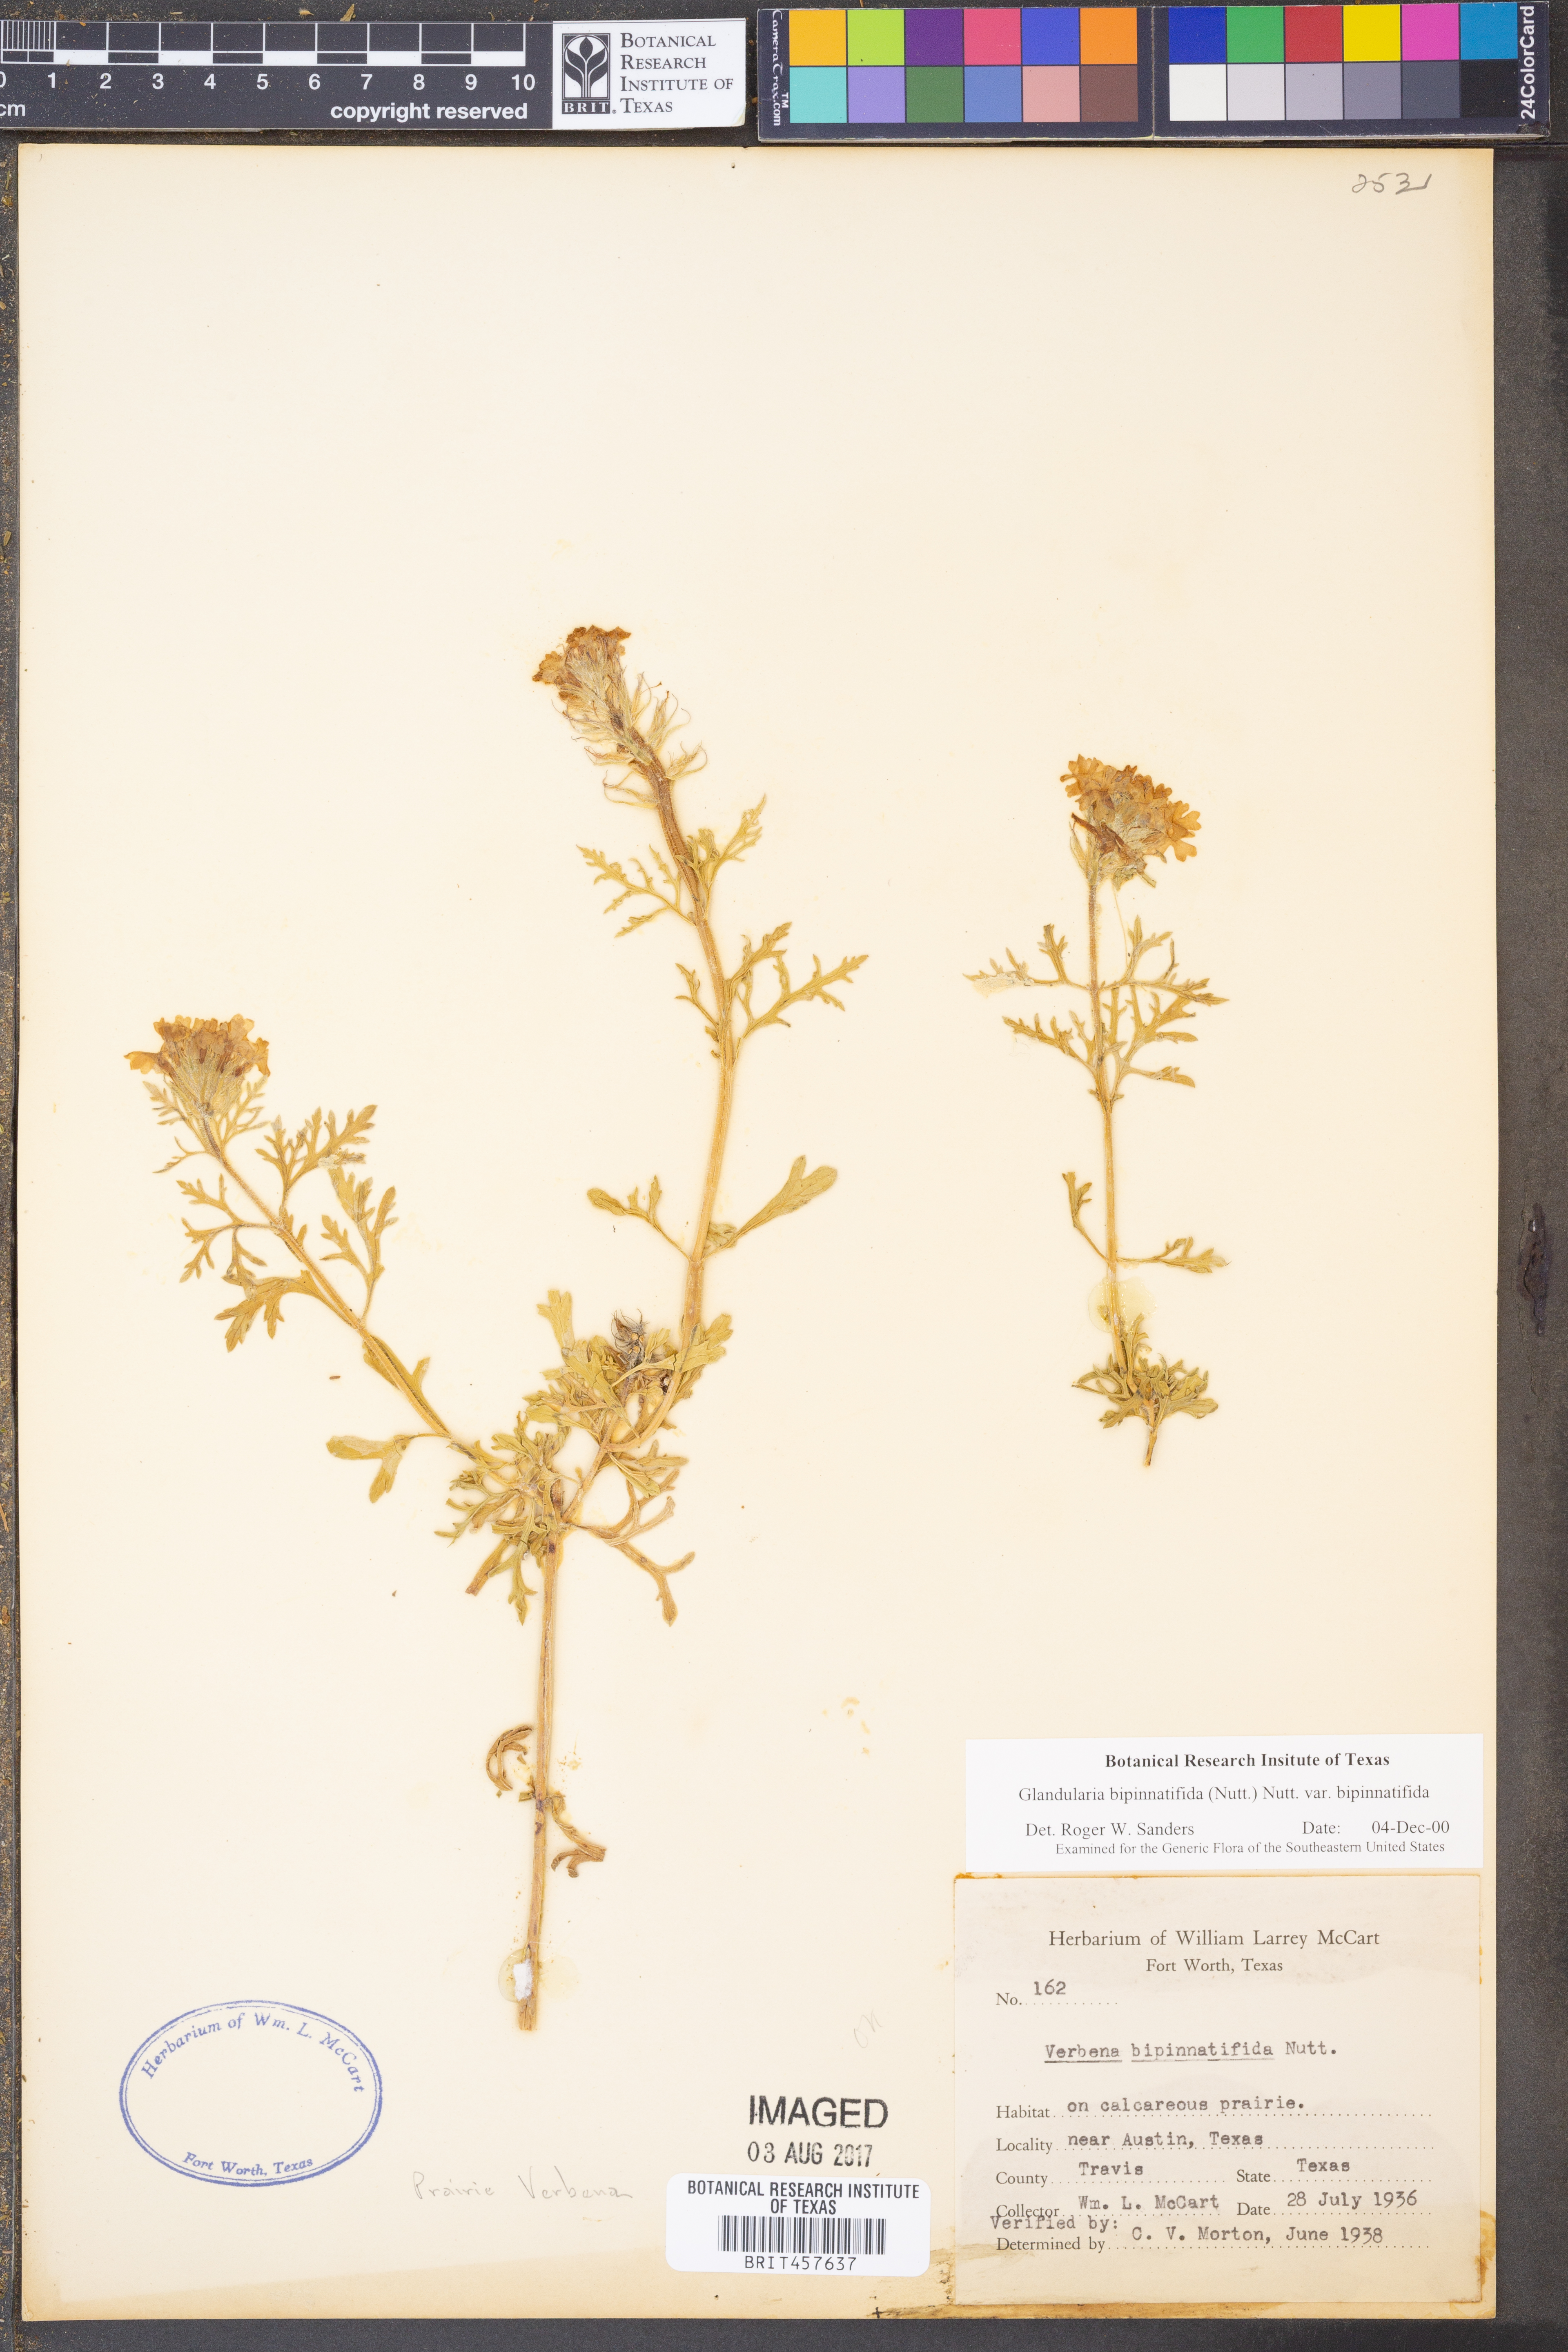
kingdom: Plantae
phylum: Tracheophyta
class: Magnoliopsida
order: Lamiales
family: Verbenaceae
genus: Verbena
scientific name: Verbena bipinnatifida
